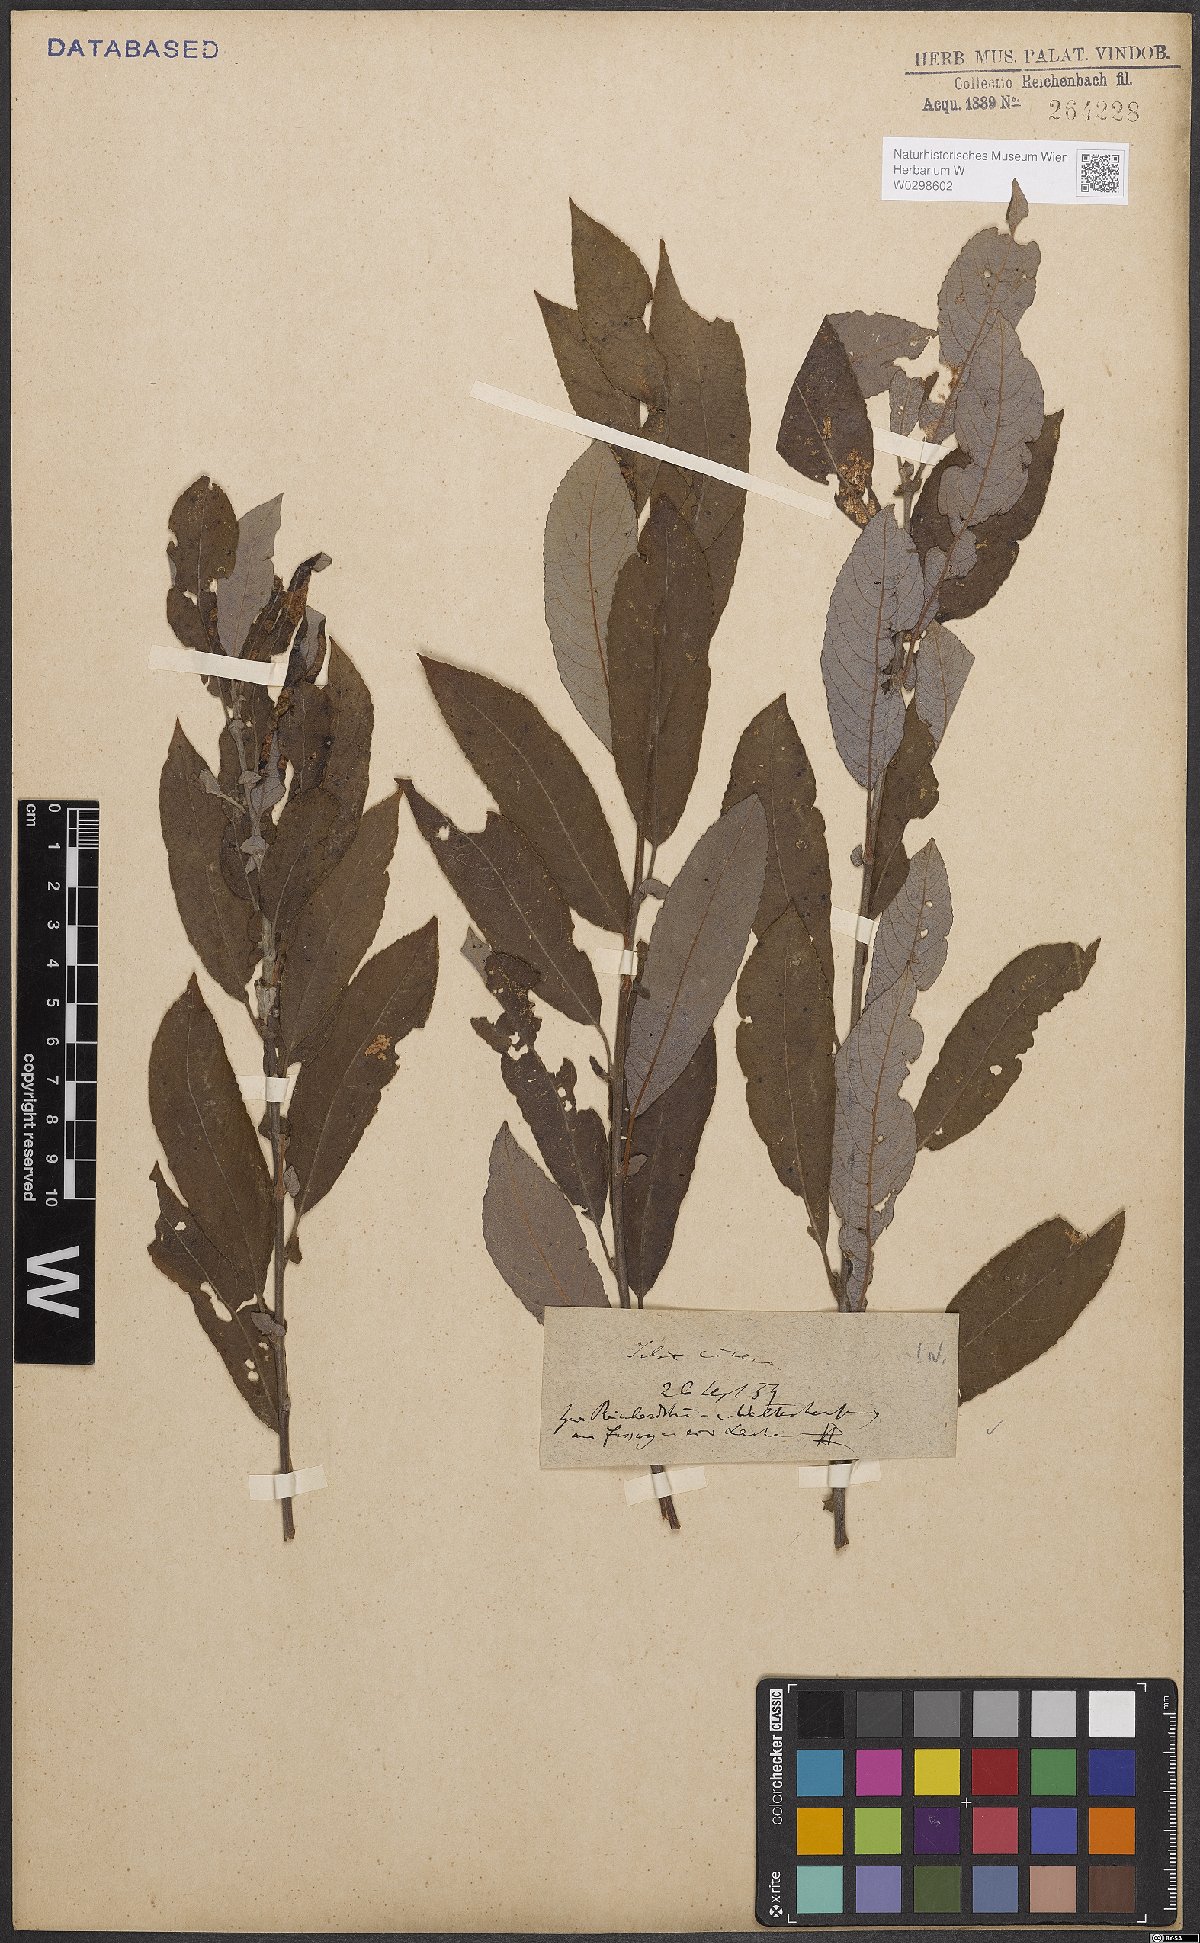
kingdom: Plantae
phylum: Tracheophyta
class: Magnoliopsida
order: Malpighiales
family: Salicaceae
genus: Salix
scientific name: Salix cinerea
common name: Common sallow
